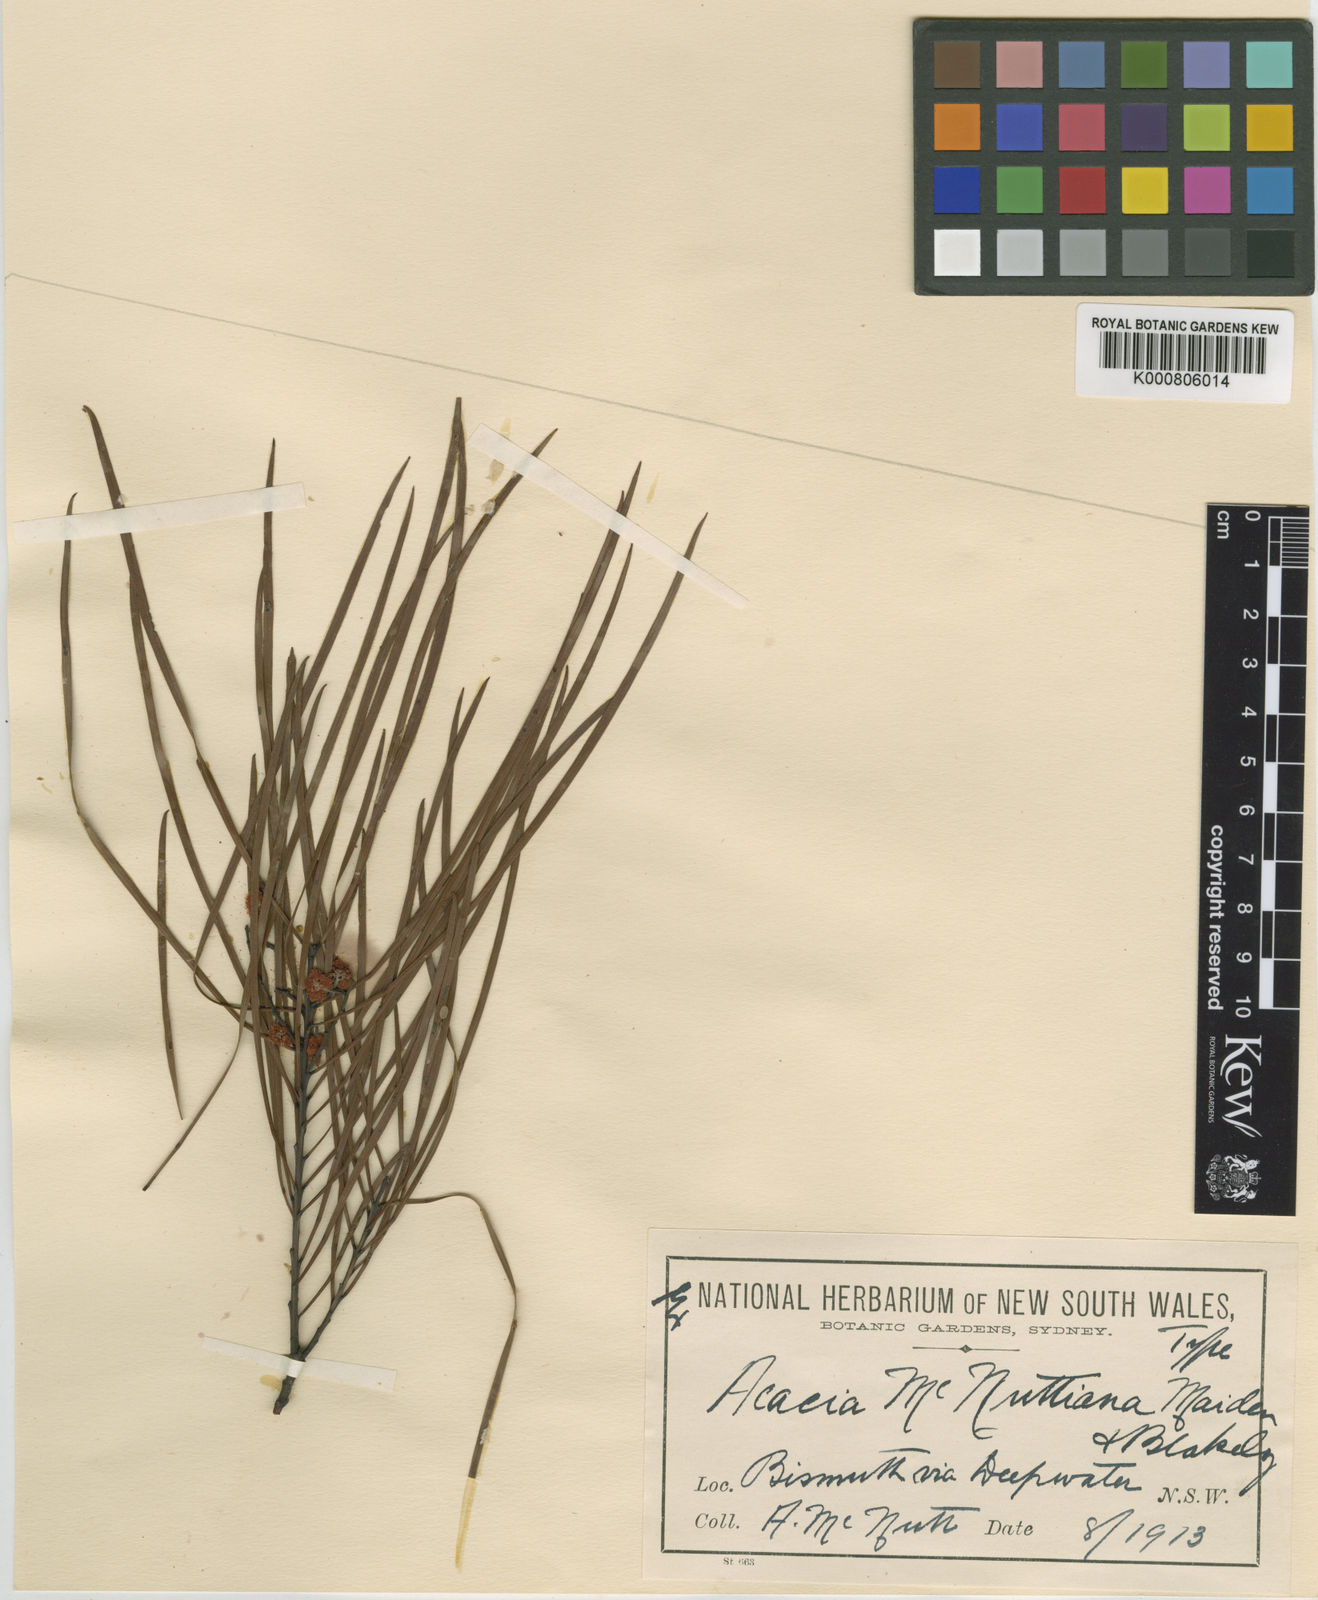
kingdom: Plantae
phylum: Tracheophyta
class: Magnoliopsida
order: Fabales
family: Fabaceae
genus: Acacia
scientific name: Acacia macnuttiana
